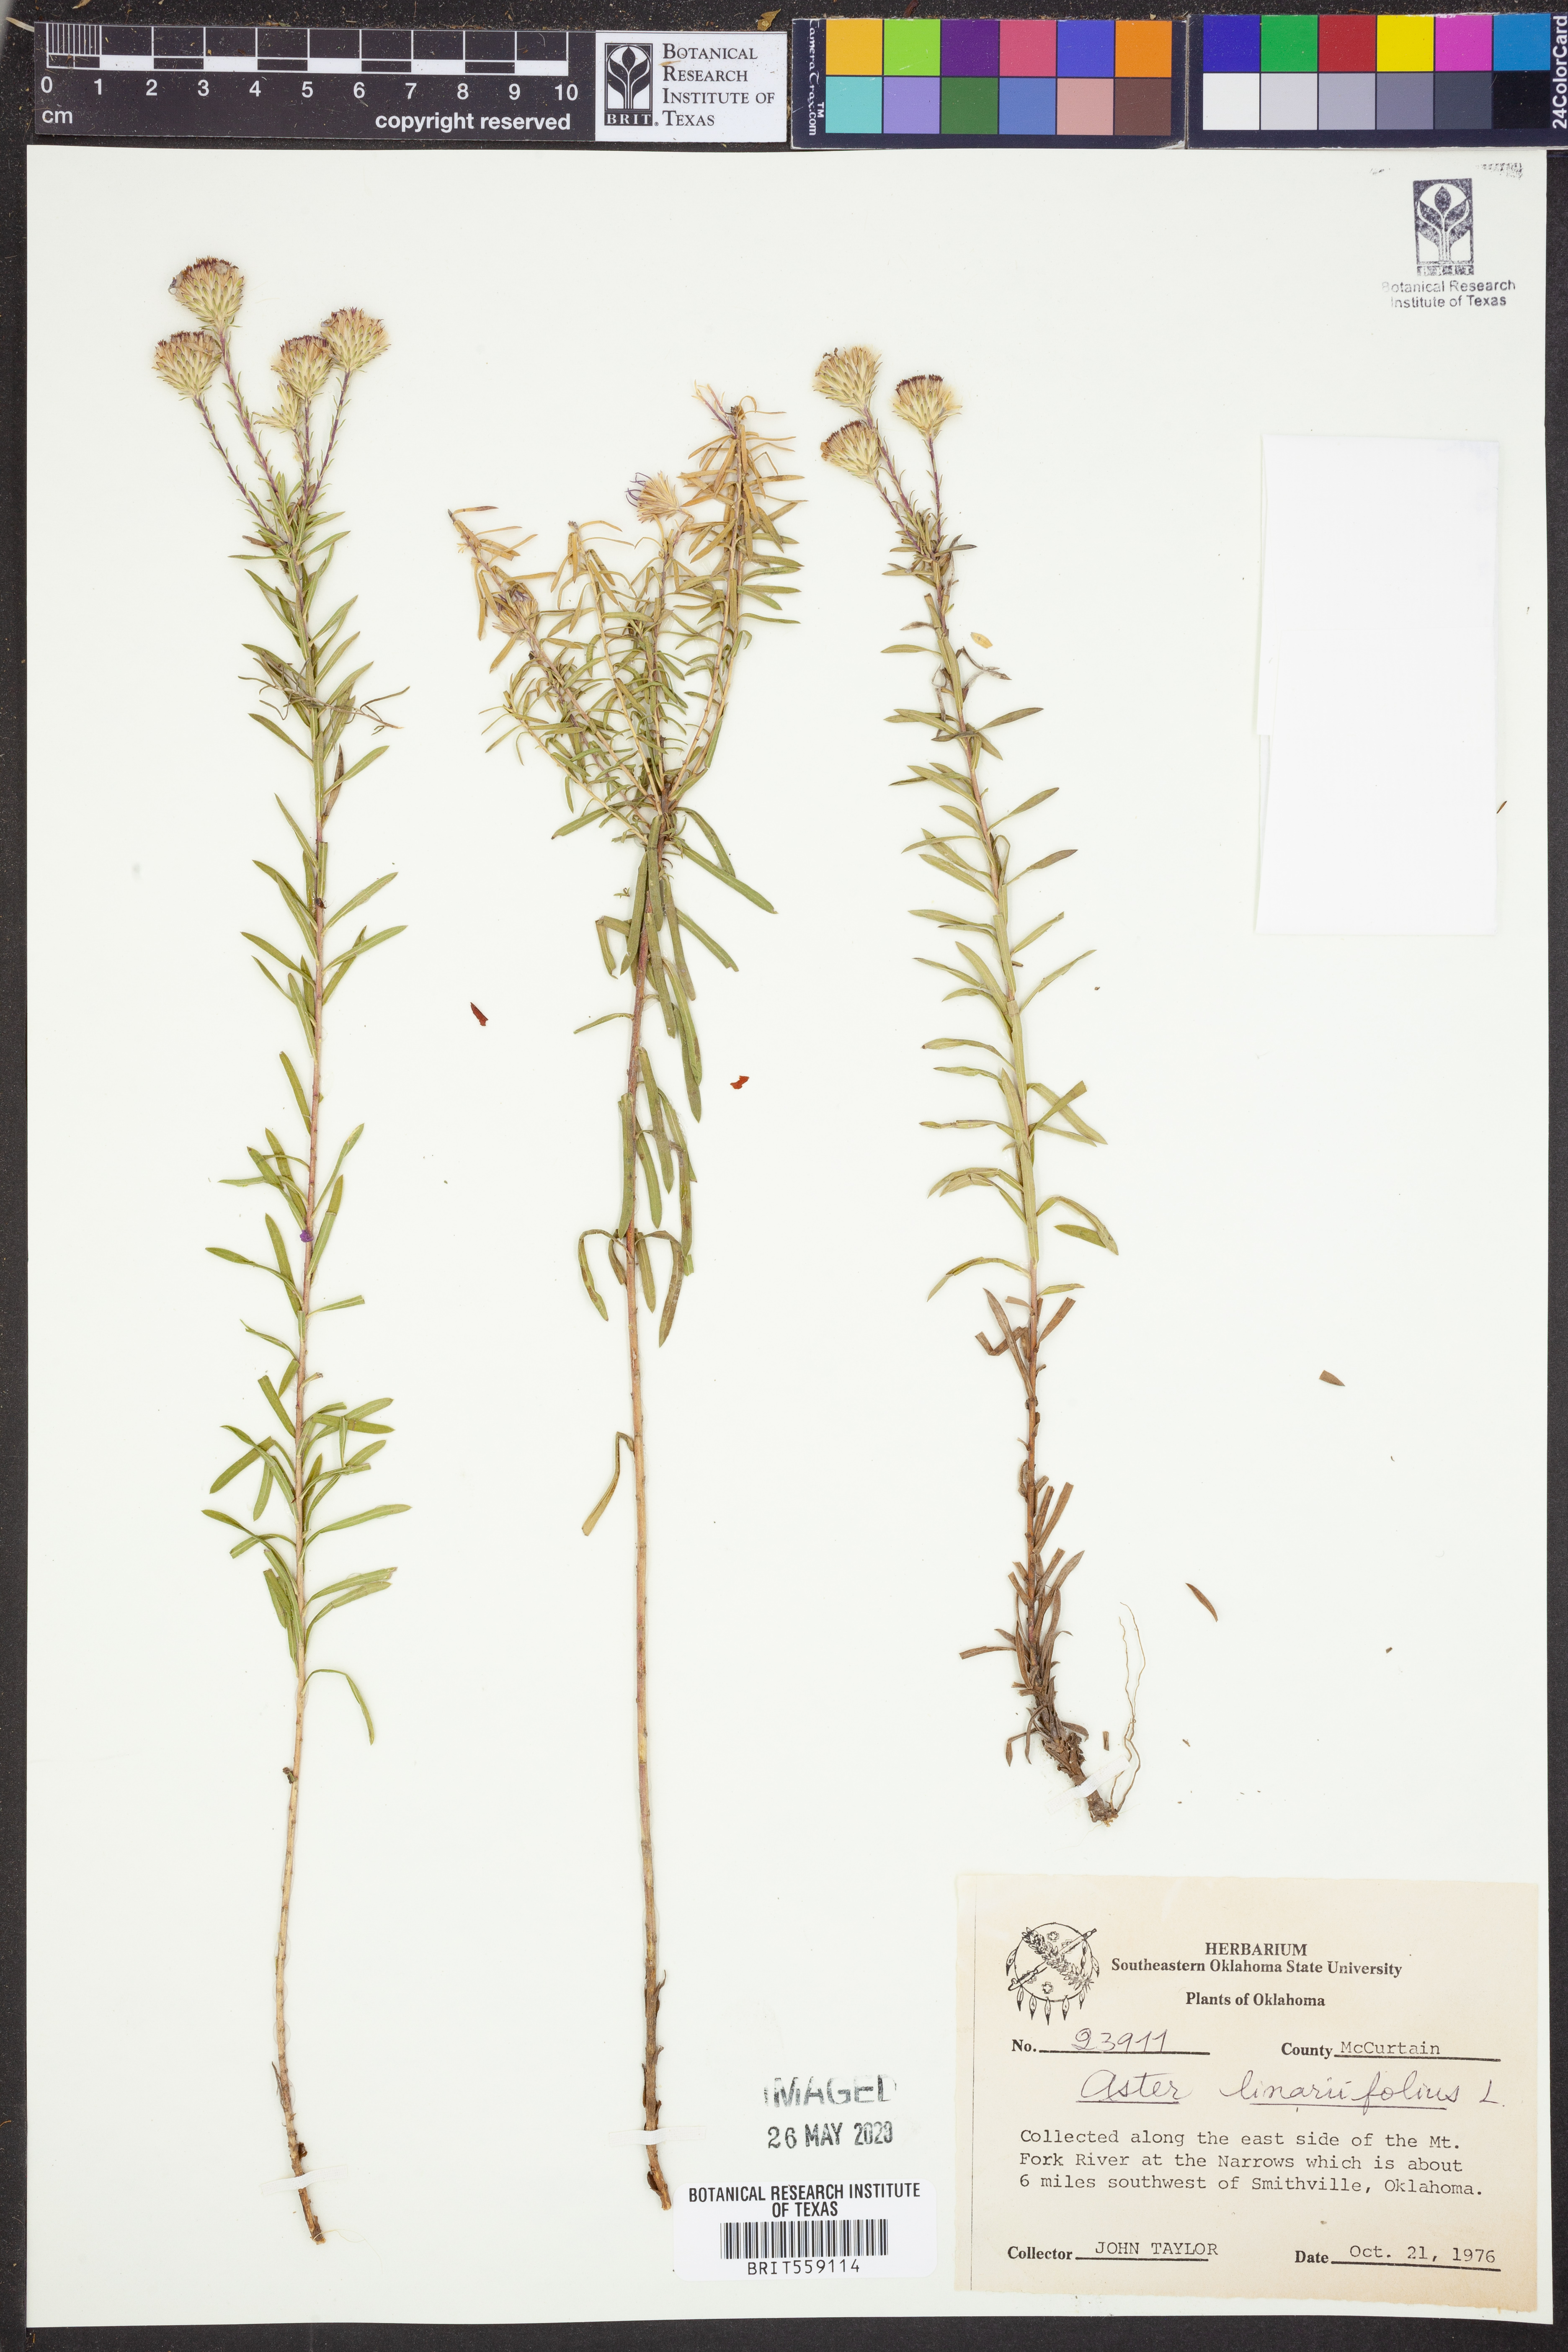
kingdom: Plantae
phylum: Tracheophyta
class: Magnoliopsida
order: Asterales
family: Asteraceae
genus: Ionactis
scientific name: Ionactis linariifolia
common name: Flax-leaf aster
